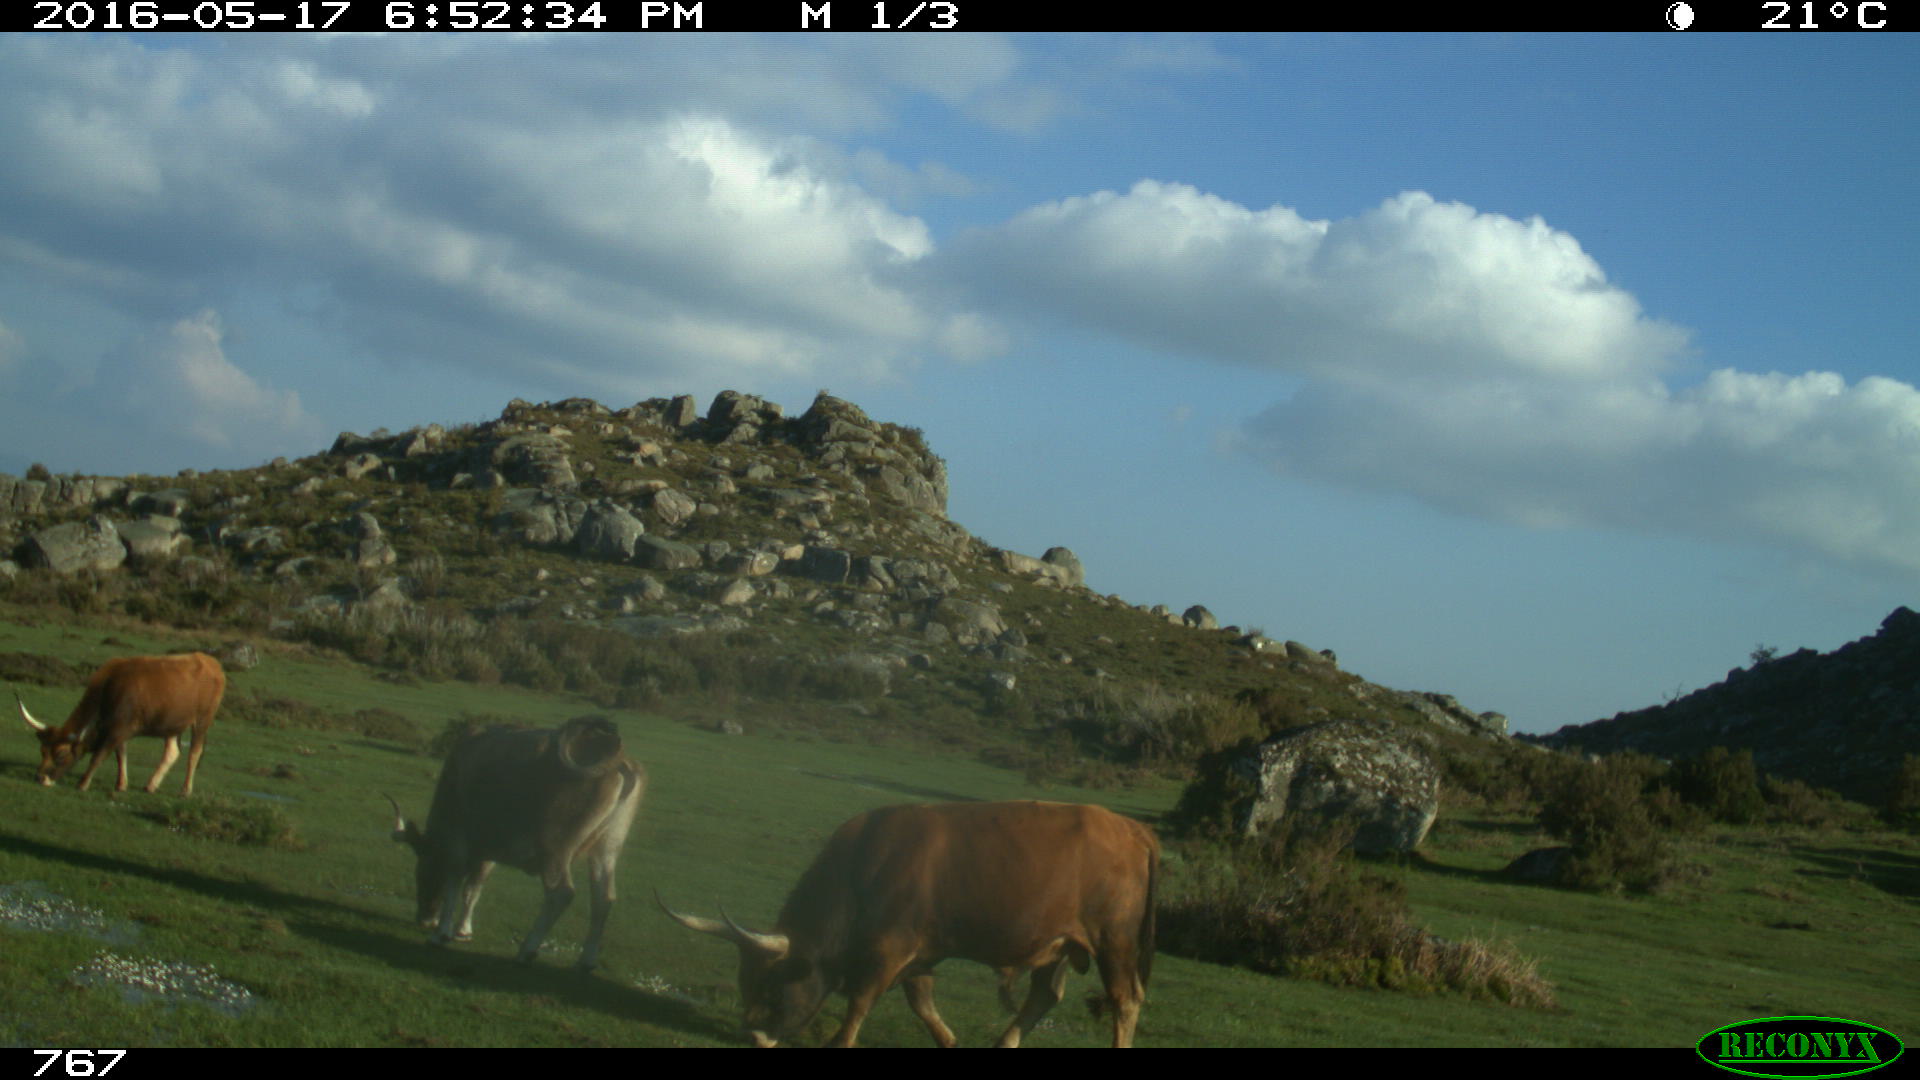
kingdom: Animalia
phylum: Chordata
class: Mammalia
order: Artiodactyla
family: Bovidae
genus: Bos
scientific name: Bos taurus
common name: Domesticated cattle
